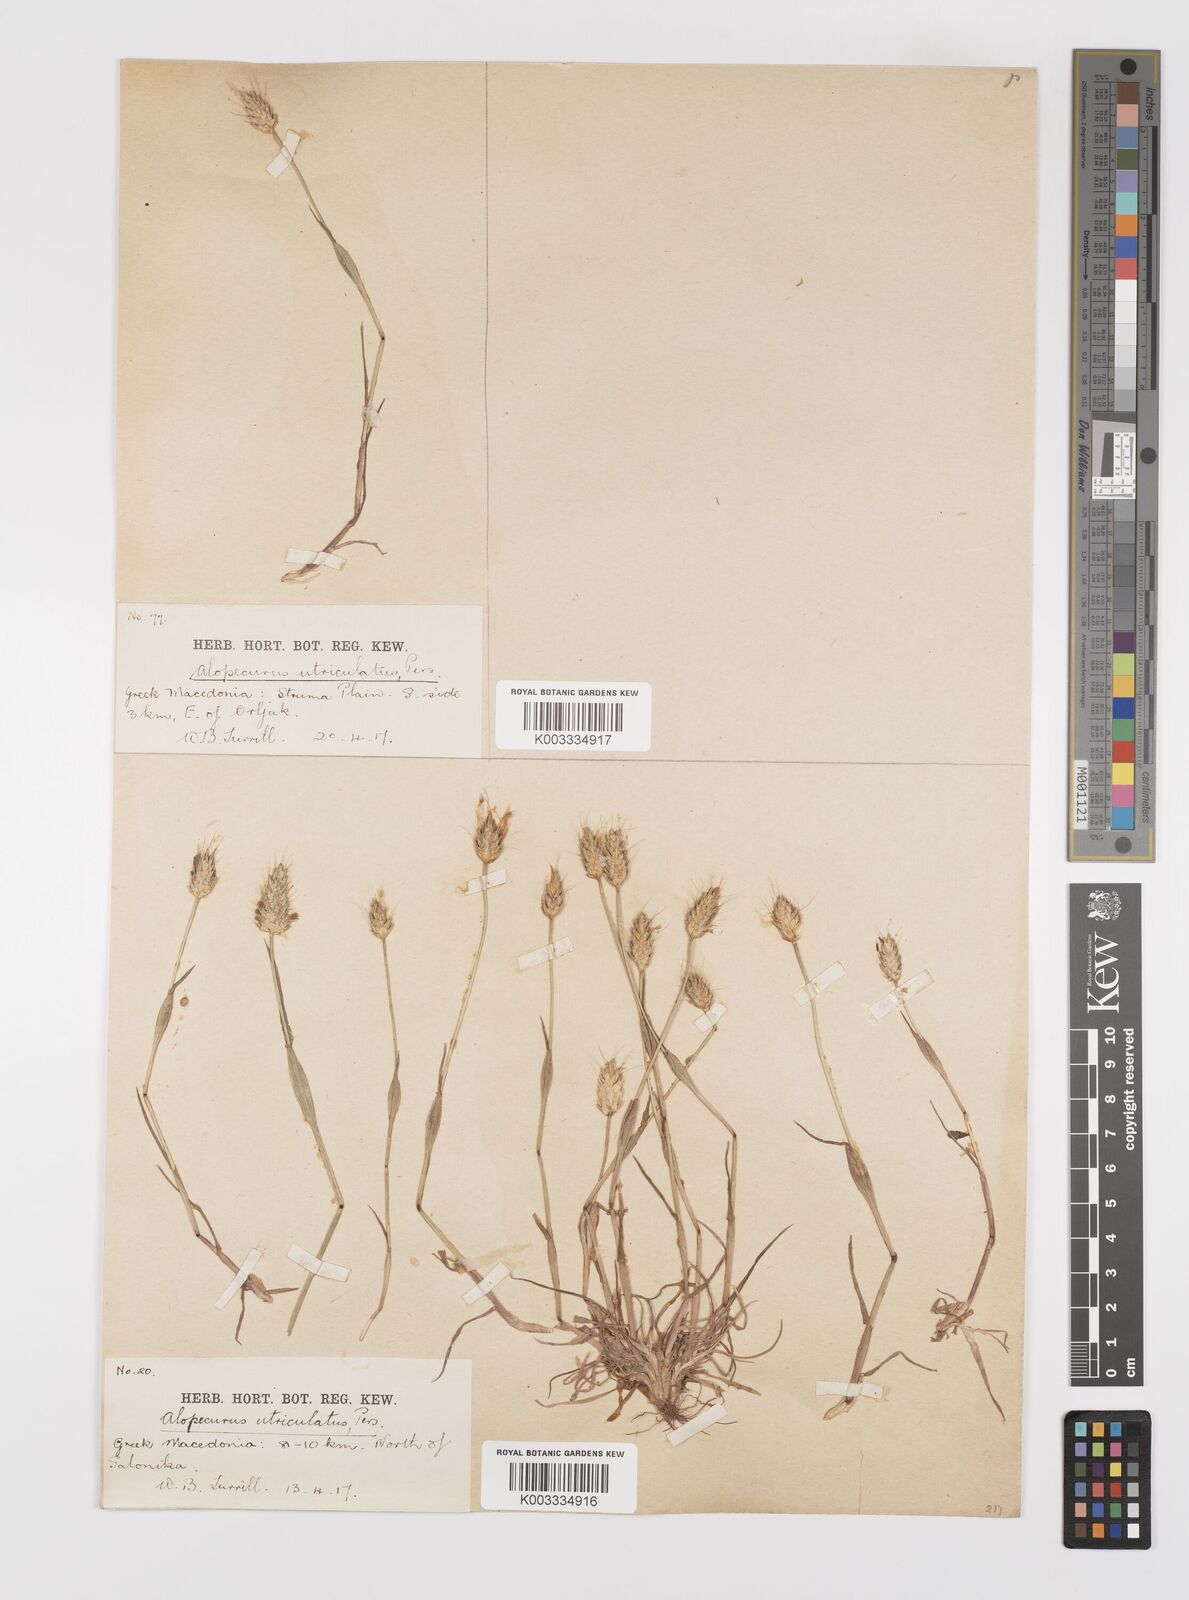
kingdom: Plantae
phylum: Tracheophyta
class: Liliopsida
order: Poales
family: Poaceae
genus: Alopecurus
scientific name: Alopecurus rendlei
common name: Rendle's meadow foxtail
